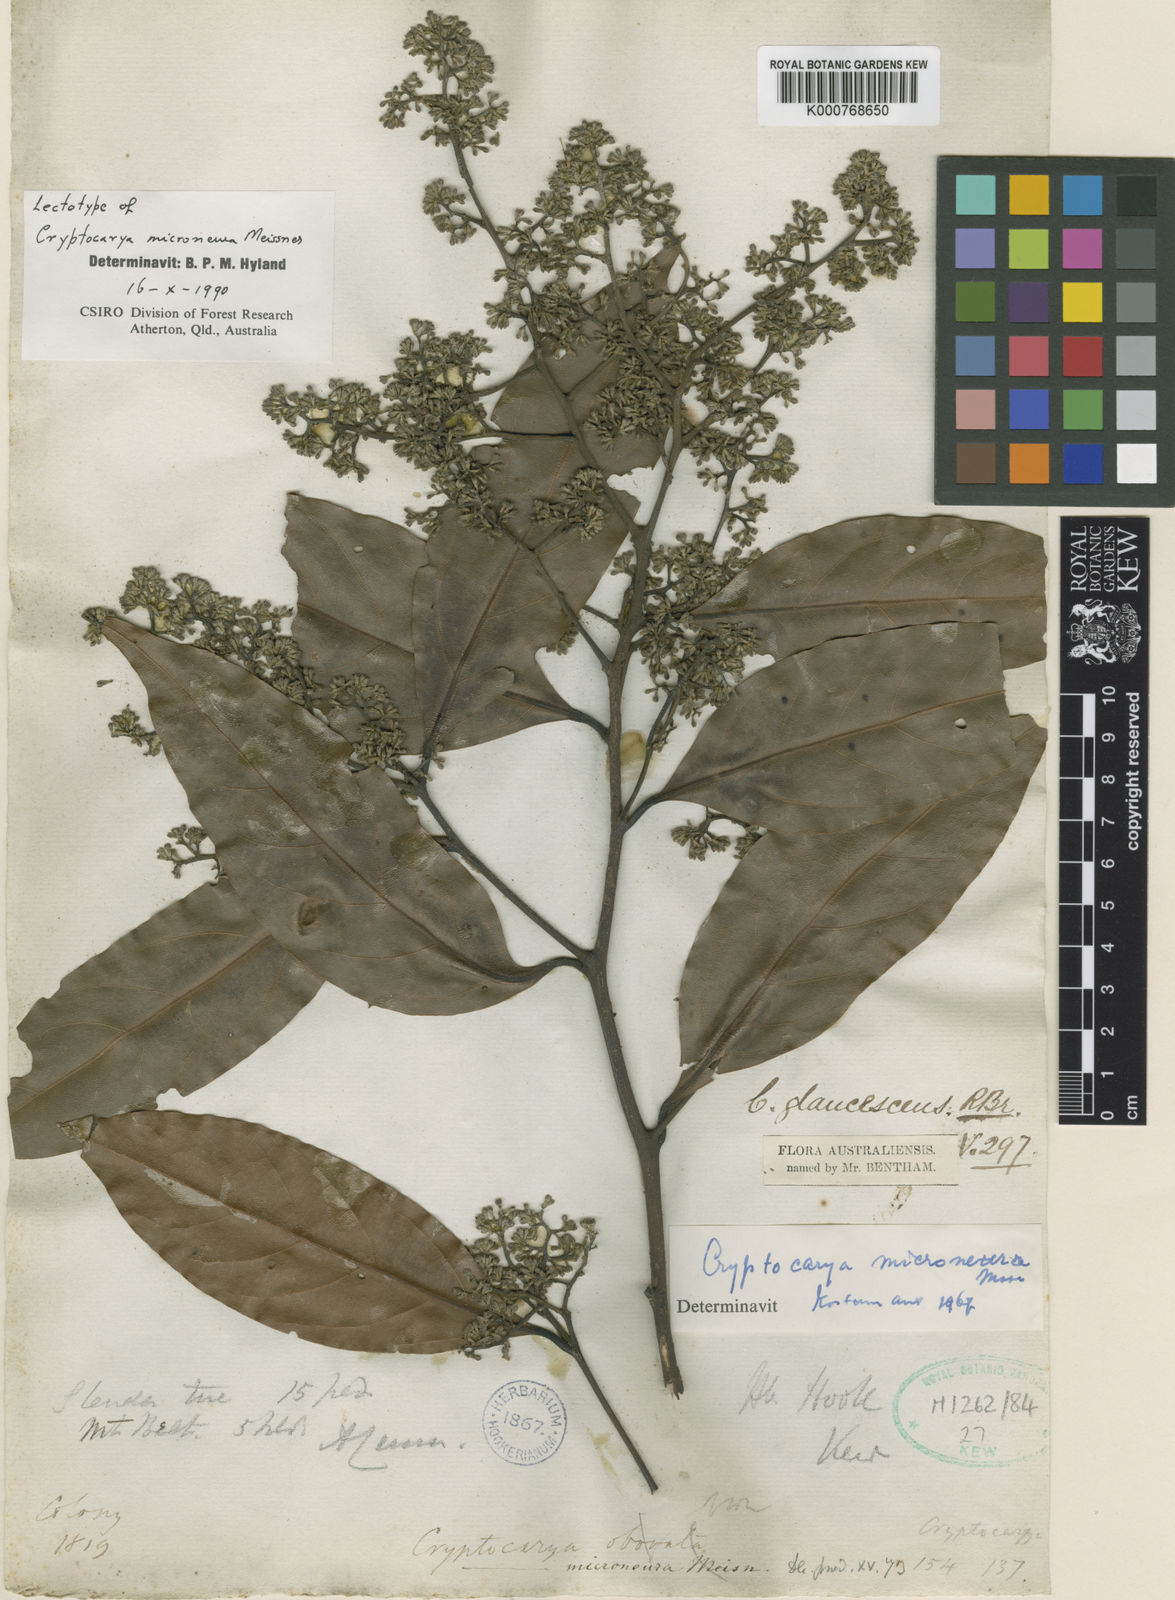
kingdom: Plantae
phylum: Tracheophyta
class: Magnoliopsida
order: Laurales
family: Lauraceae
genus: Cryptocarya
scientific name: Cryptocarya microneura
